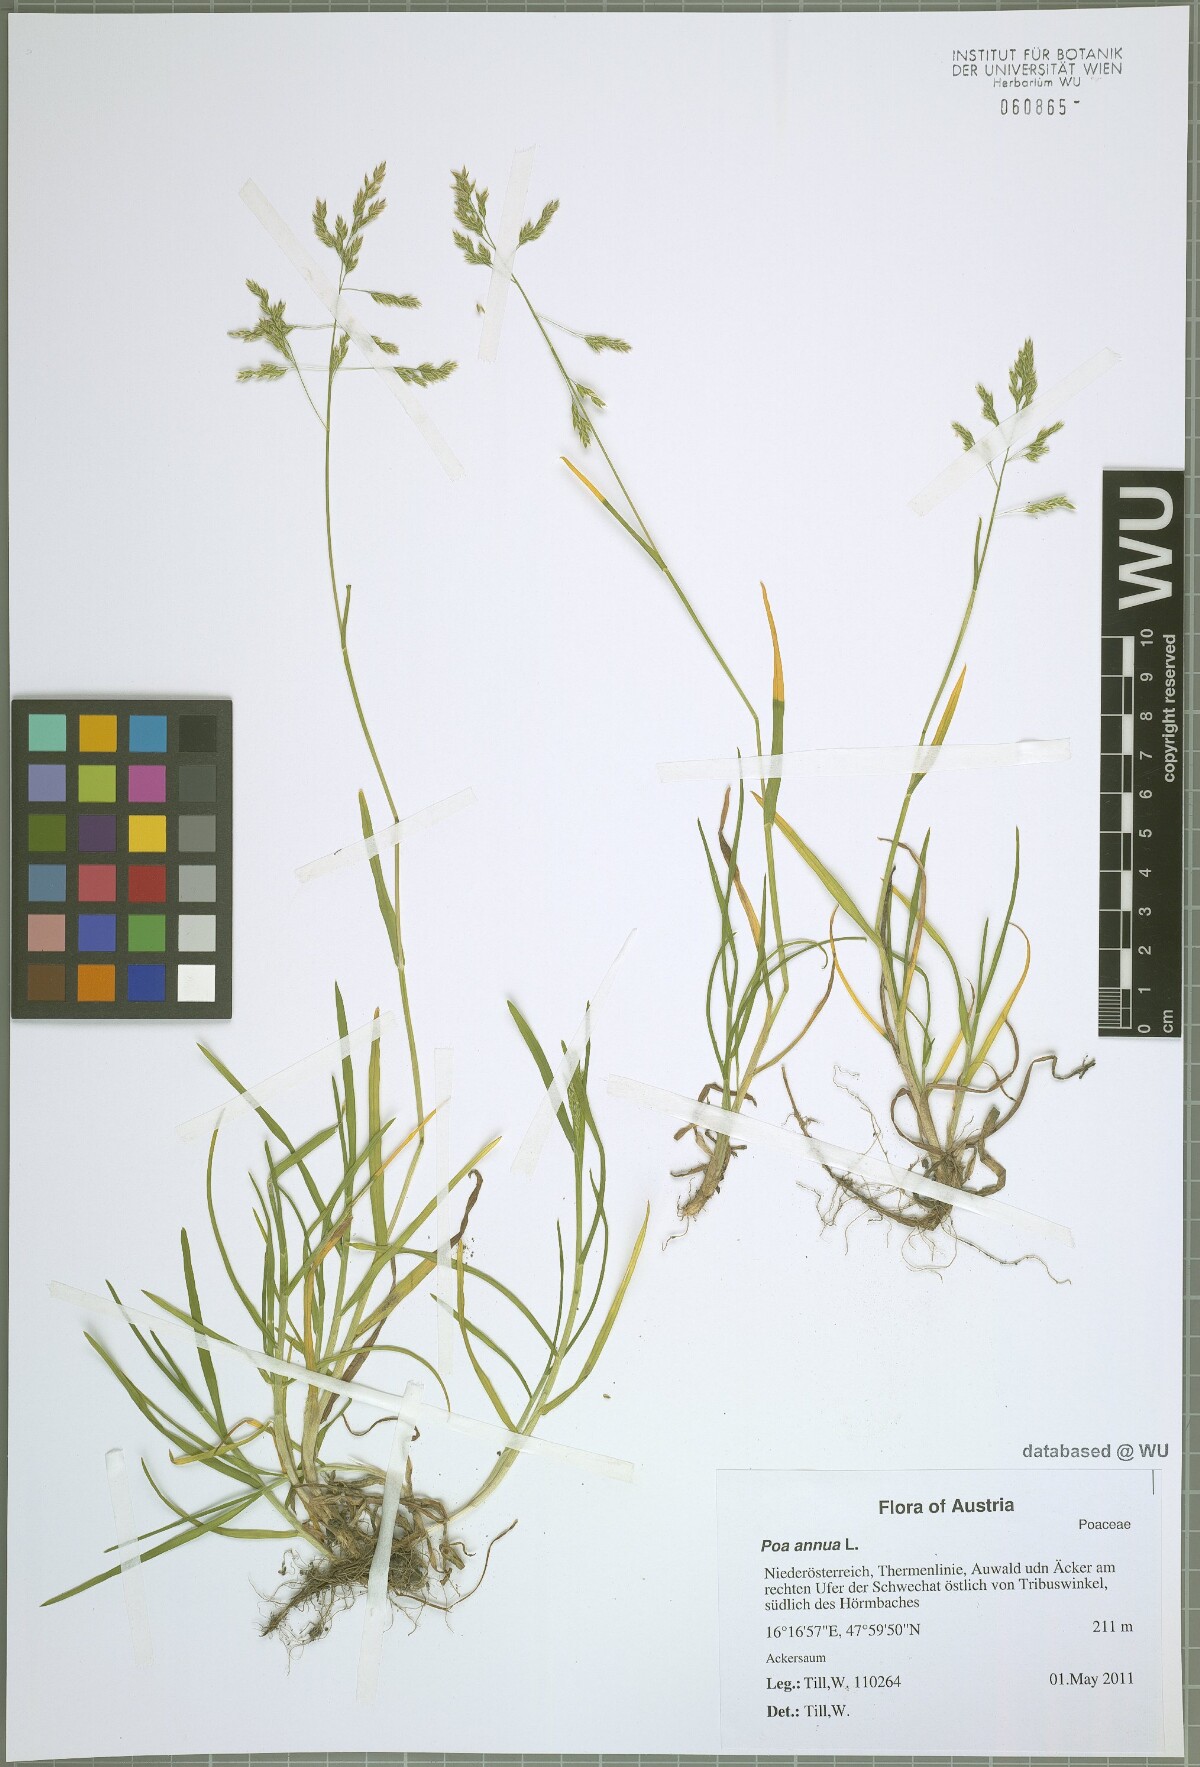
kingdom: Plantae
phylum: Tracheophyta
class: Liliopsida
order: Poales
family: Poaceae
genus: Poa
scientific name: Poa annua
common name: Annual bluegrass
